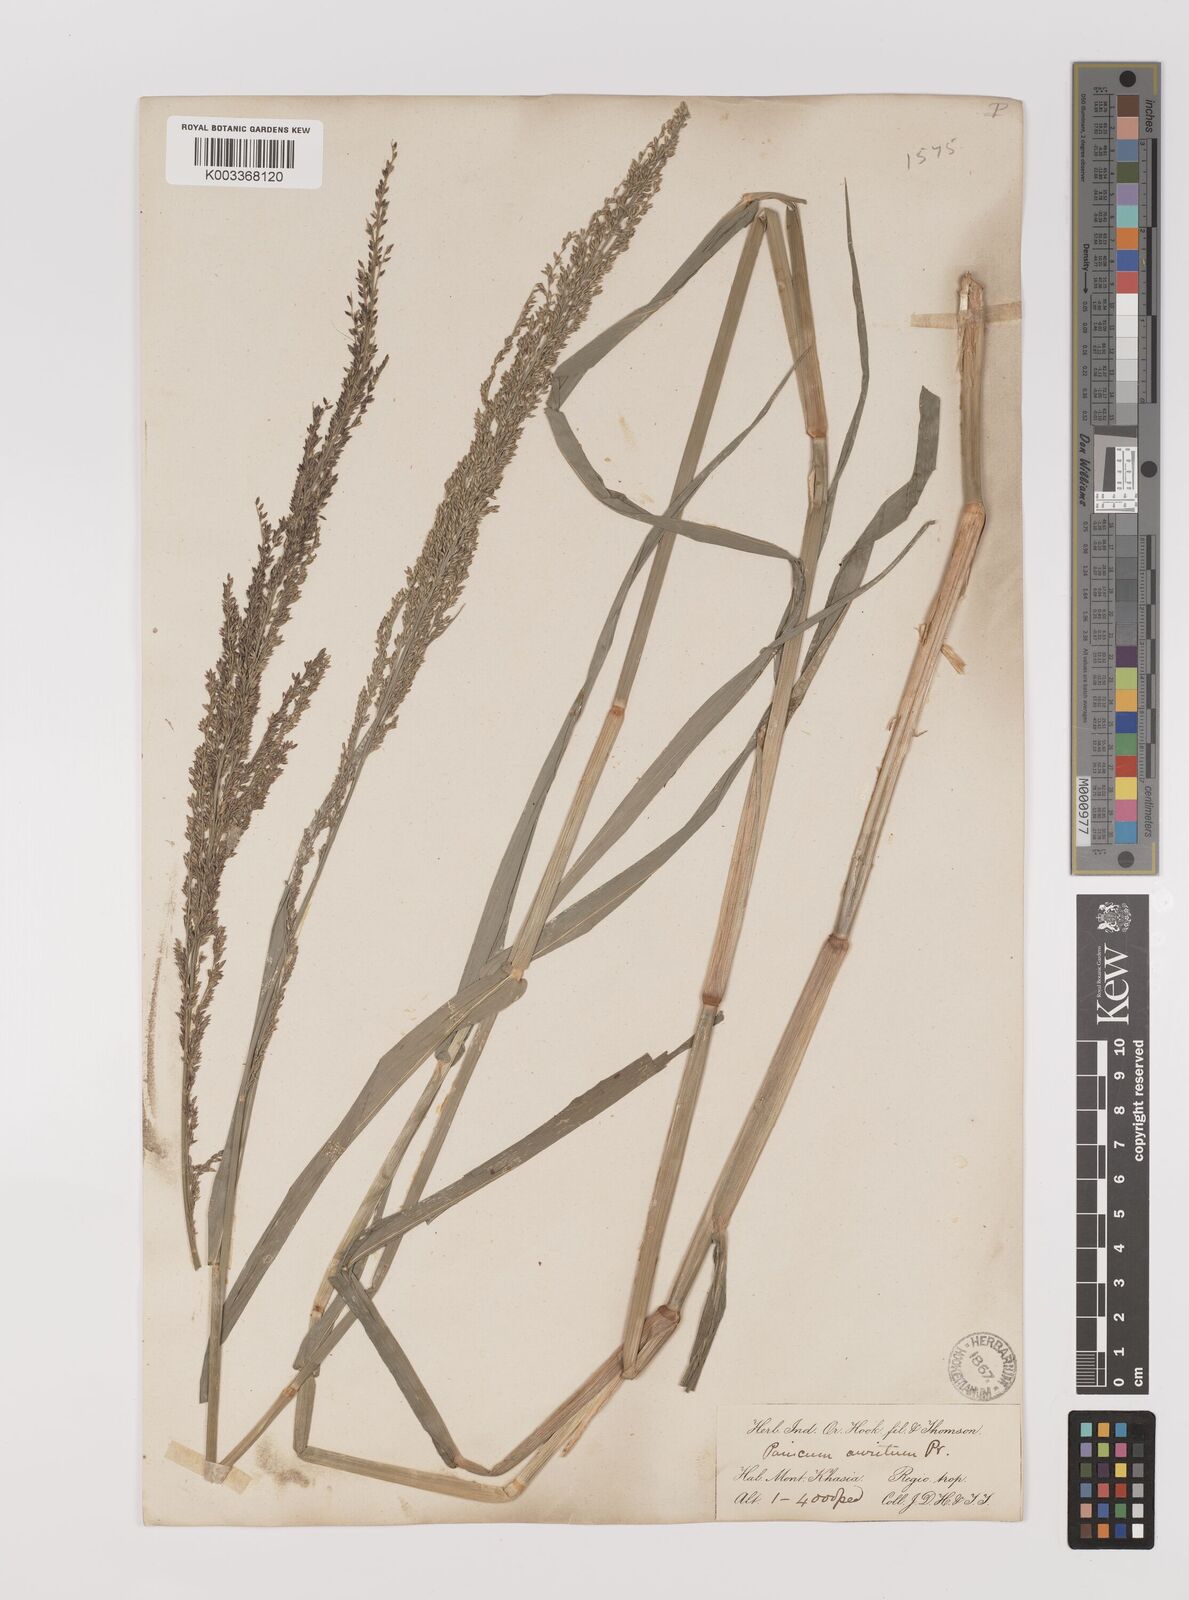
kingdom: Plantae
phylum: Tracheophyta
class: Liliopsida
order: Poales
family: Poaceae
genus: Hymenachne
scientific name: Hymenachne aurita
